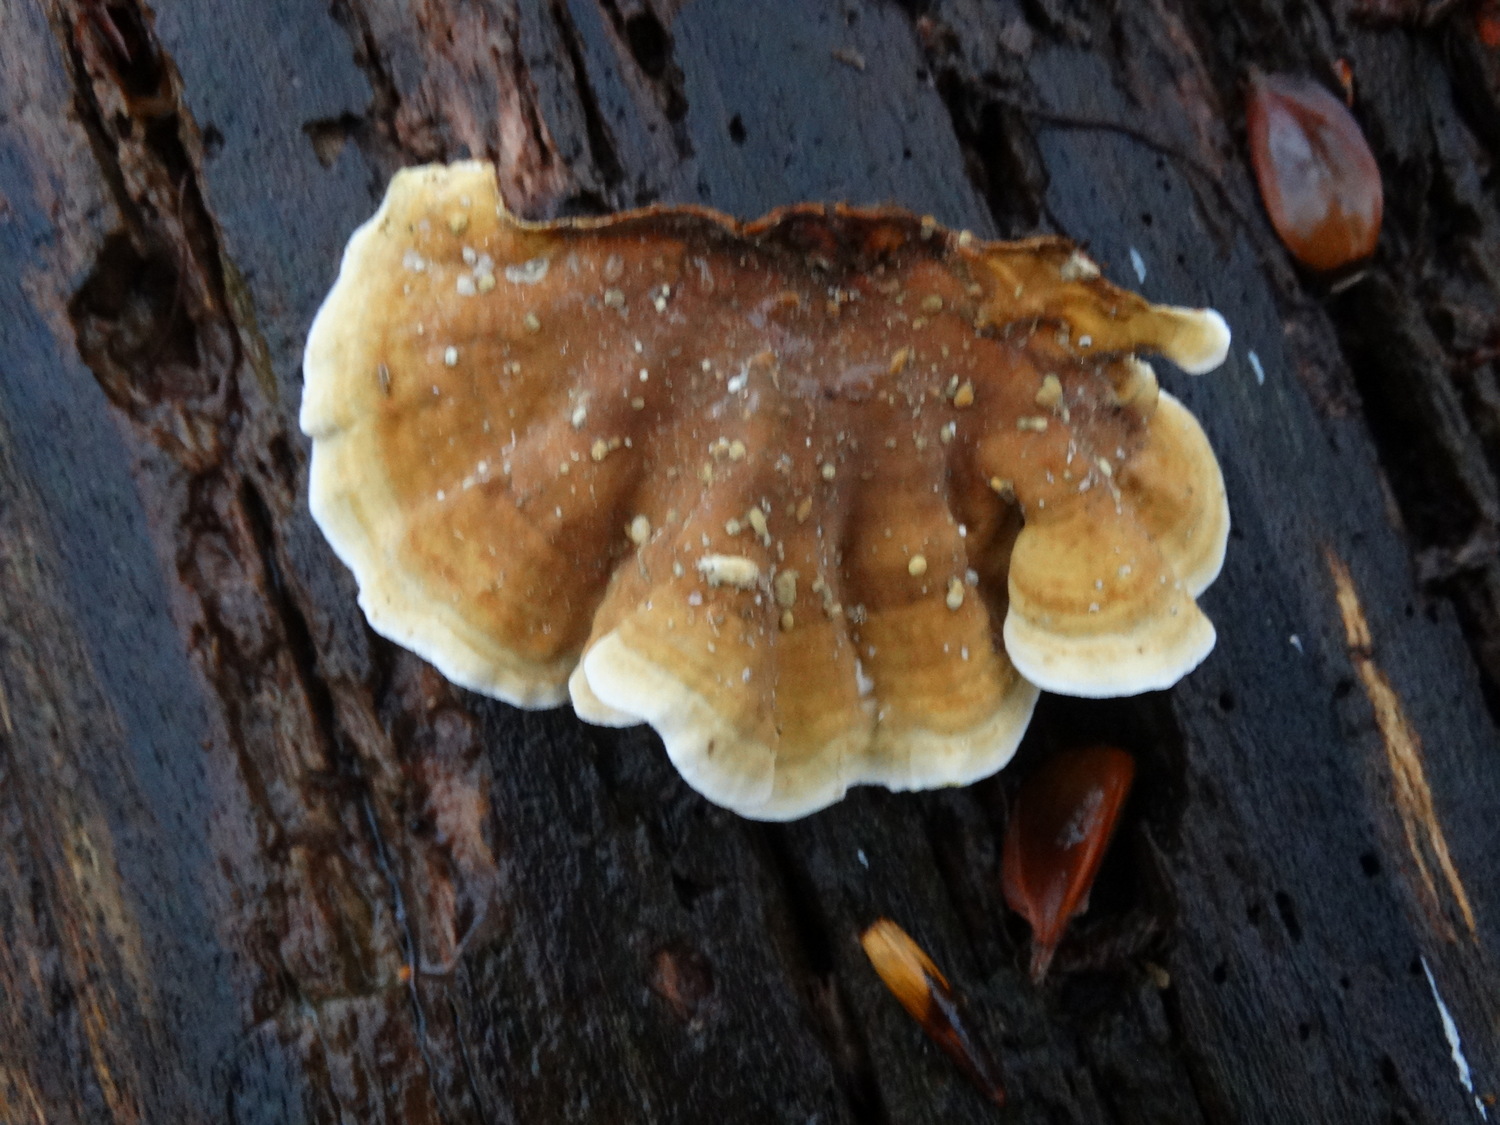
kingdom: Fungi
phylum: Basidiomycota
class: Agaricomycetes
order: Russulales
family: Stereaceae
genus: Stereum
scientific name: Stereum subtomentosum
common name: smuk lædersvamp
